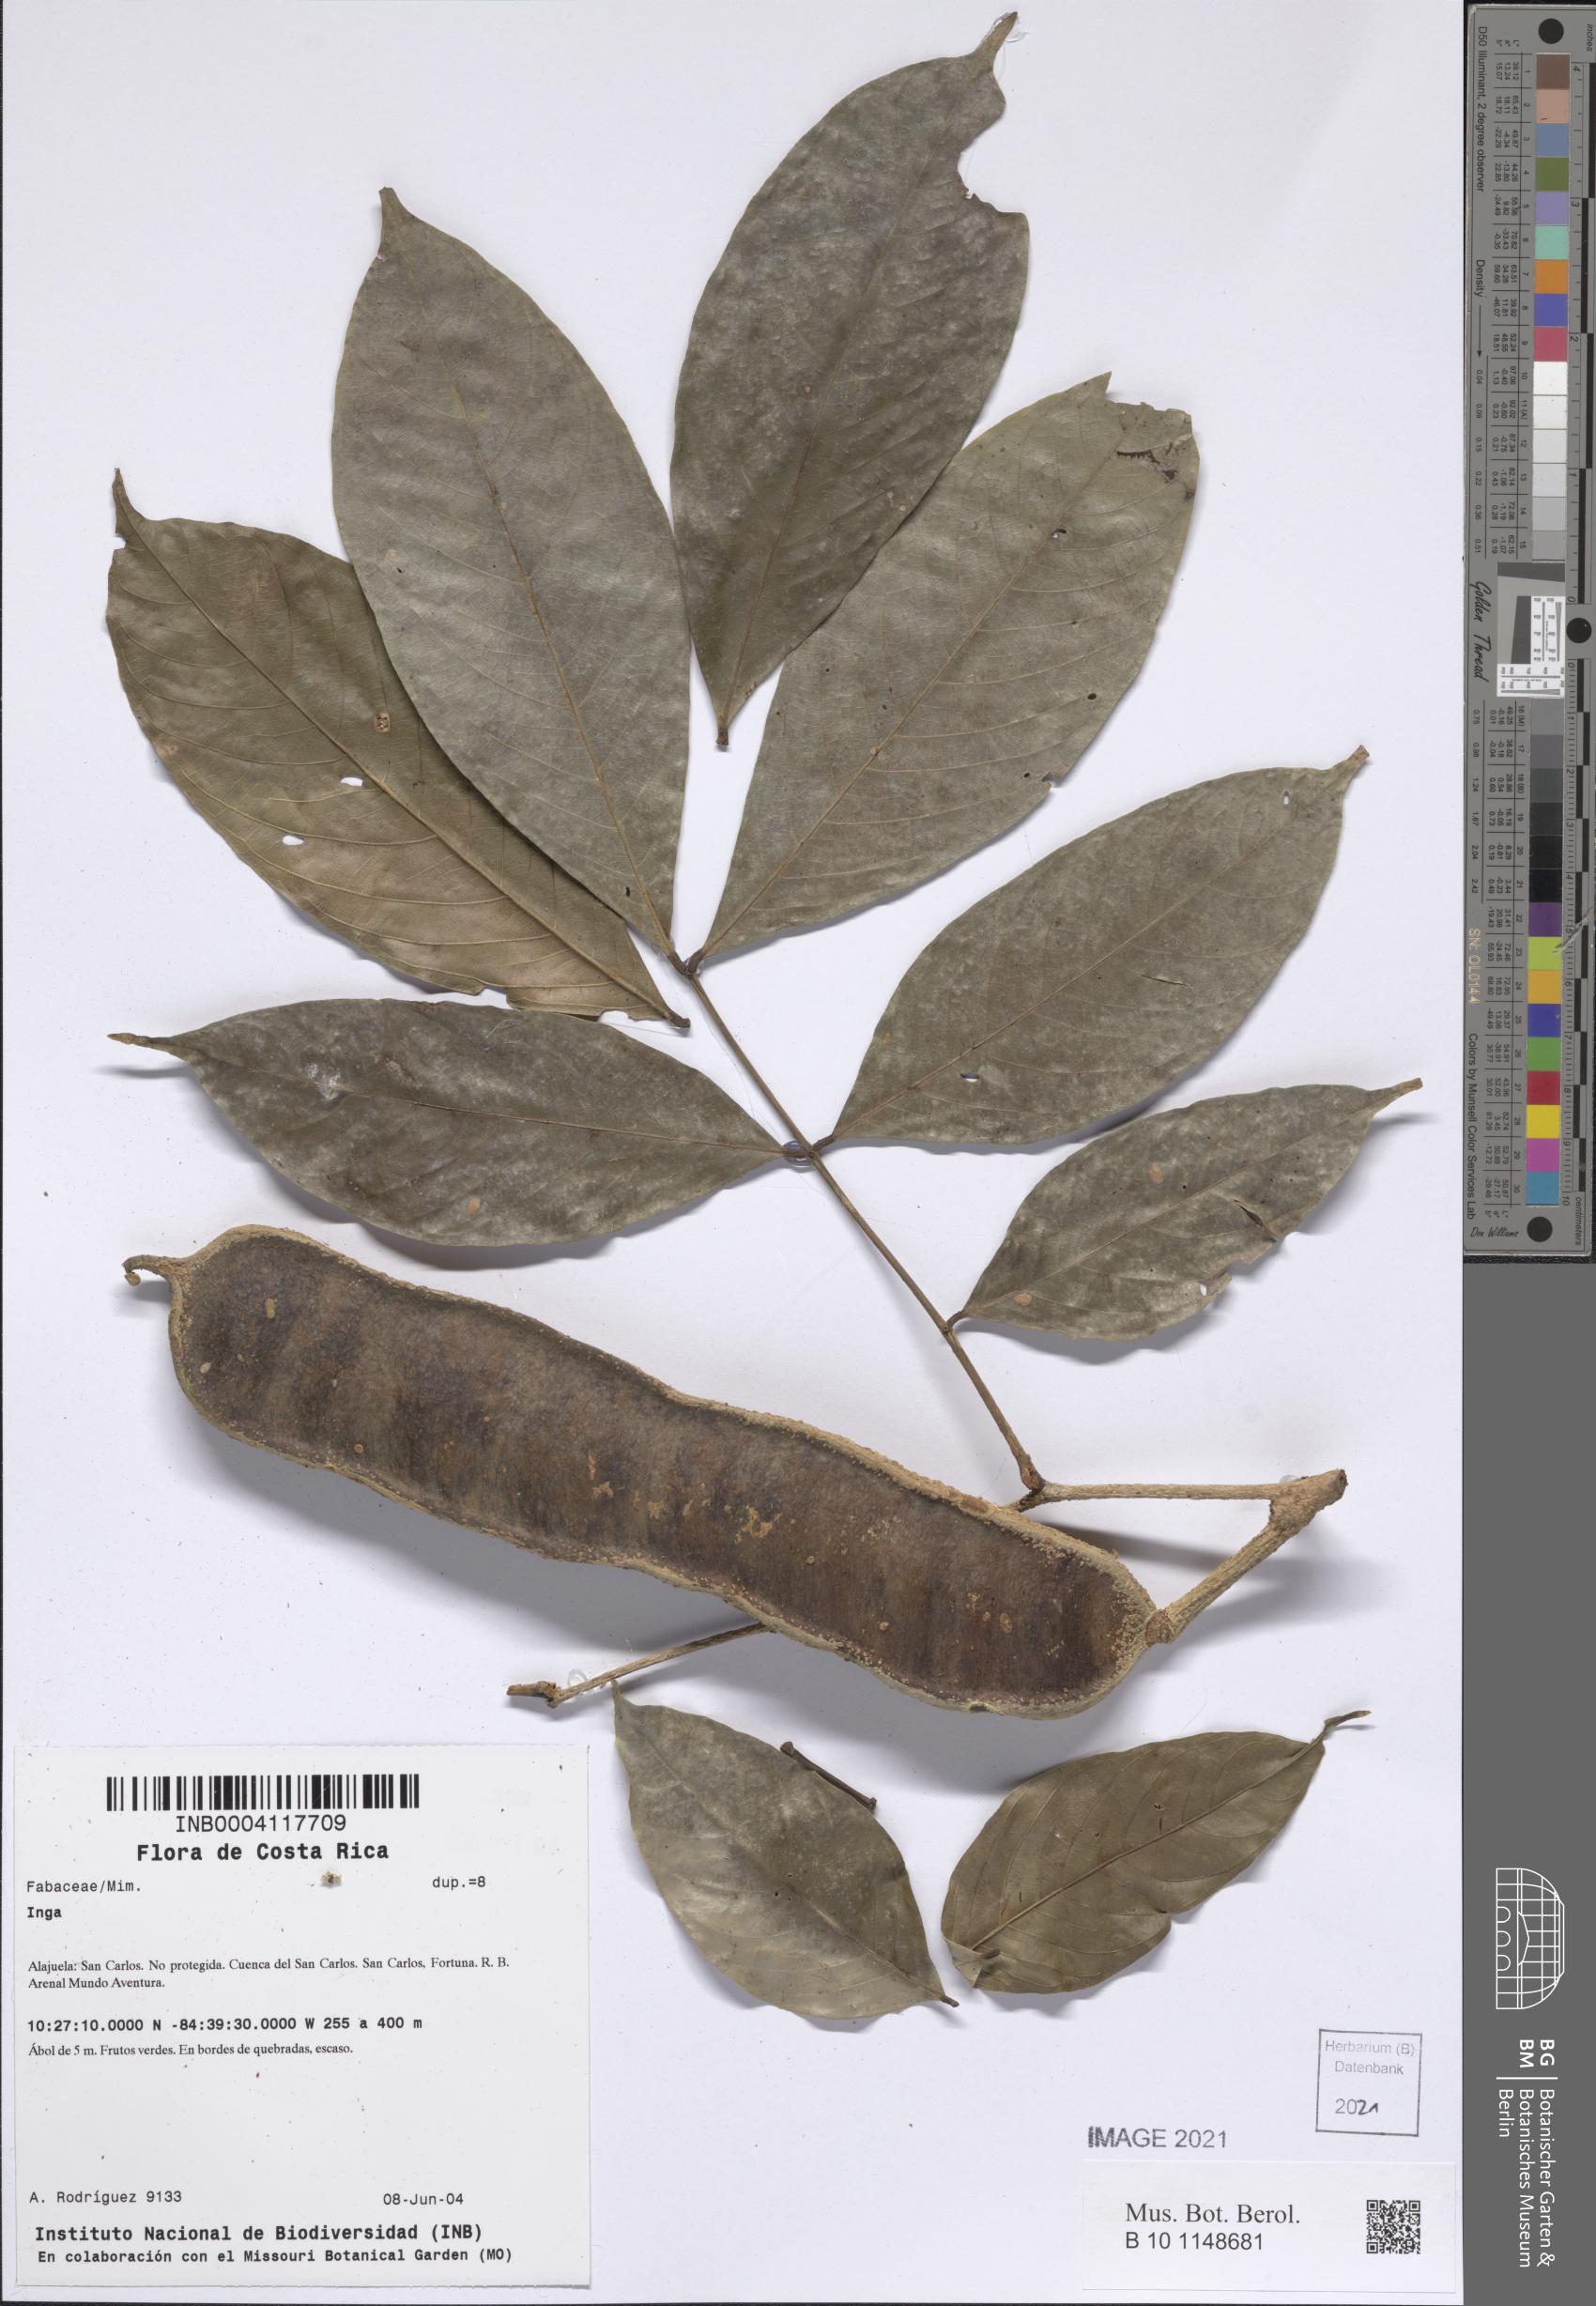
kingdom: Plantae
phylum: Tracheophyta
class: Magnoliopsida
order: Fabales
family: Fabaceae
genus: Inga
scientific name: Inga
